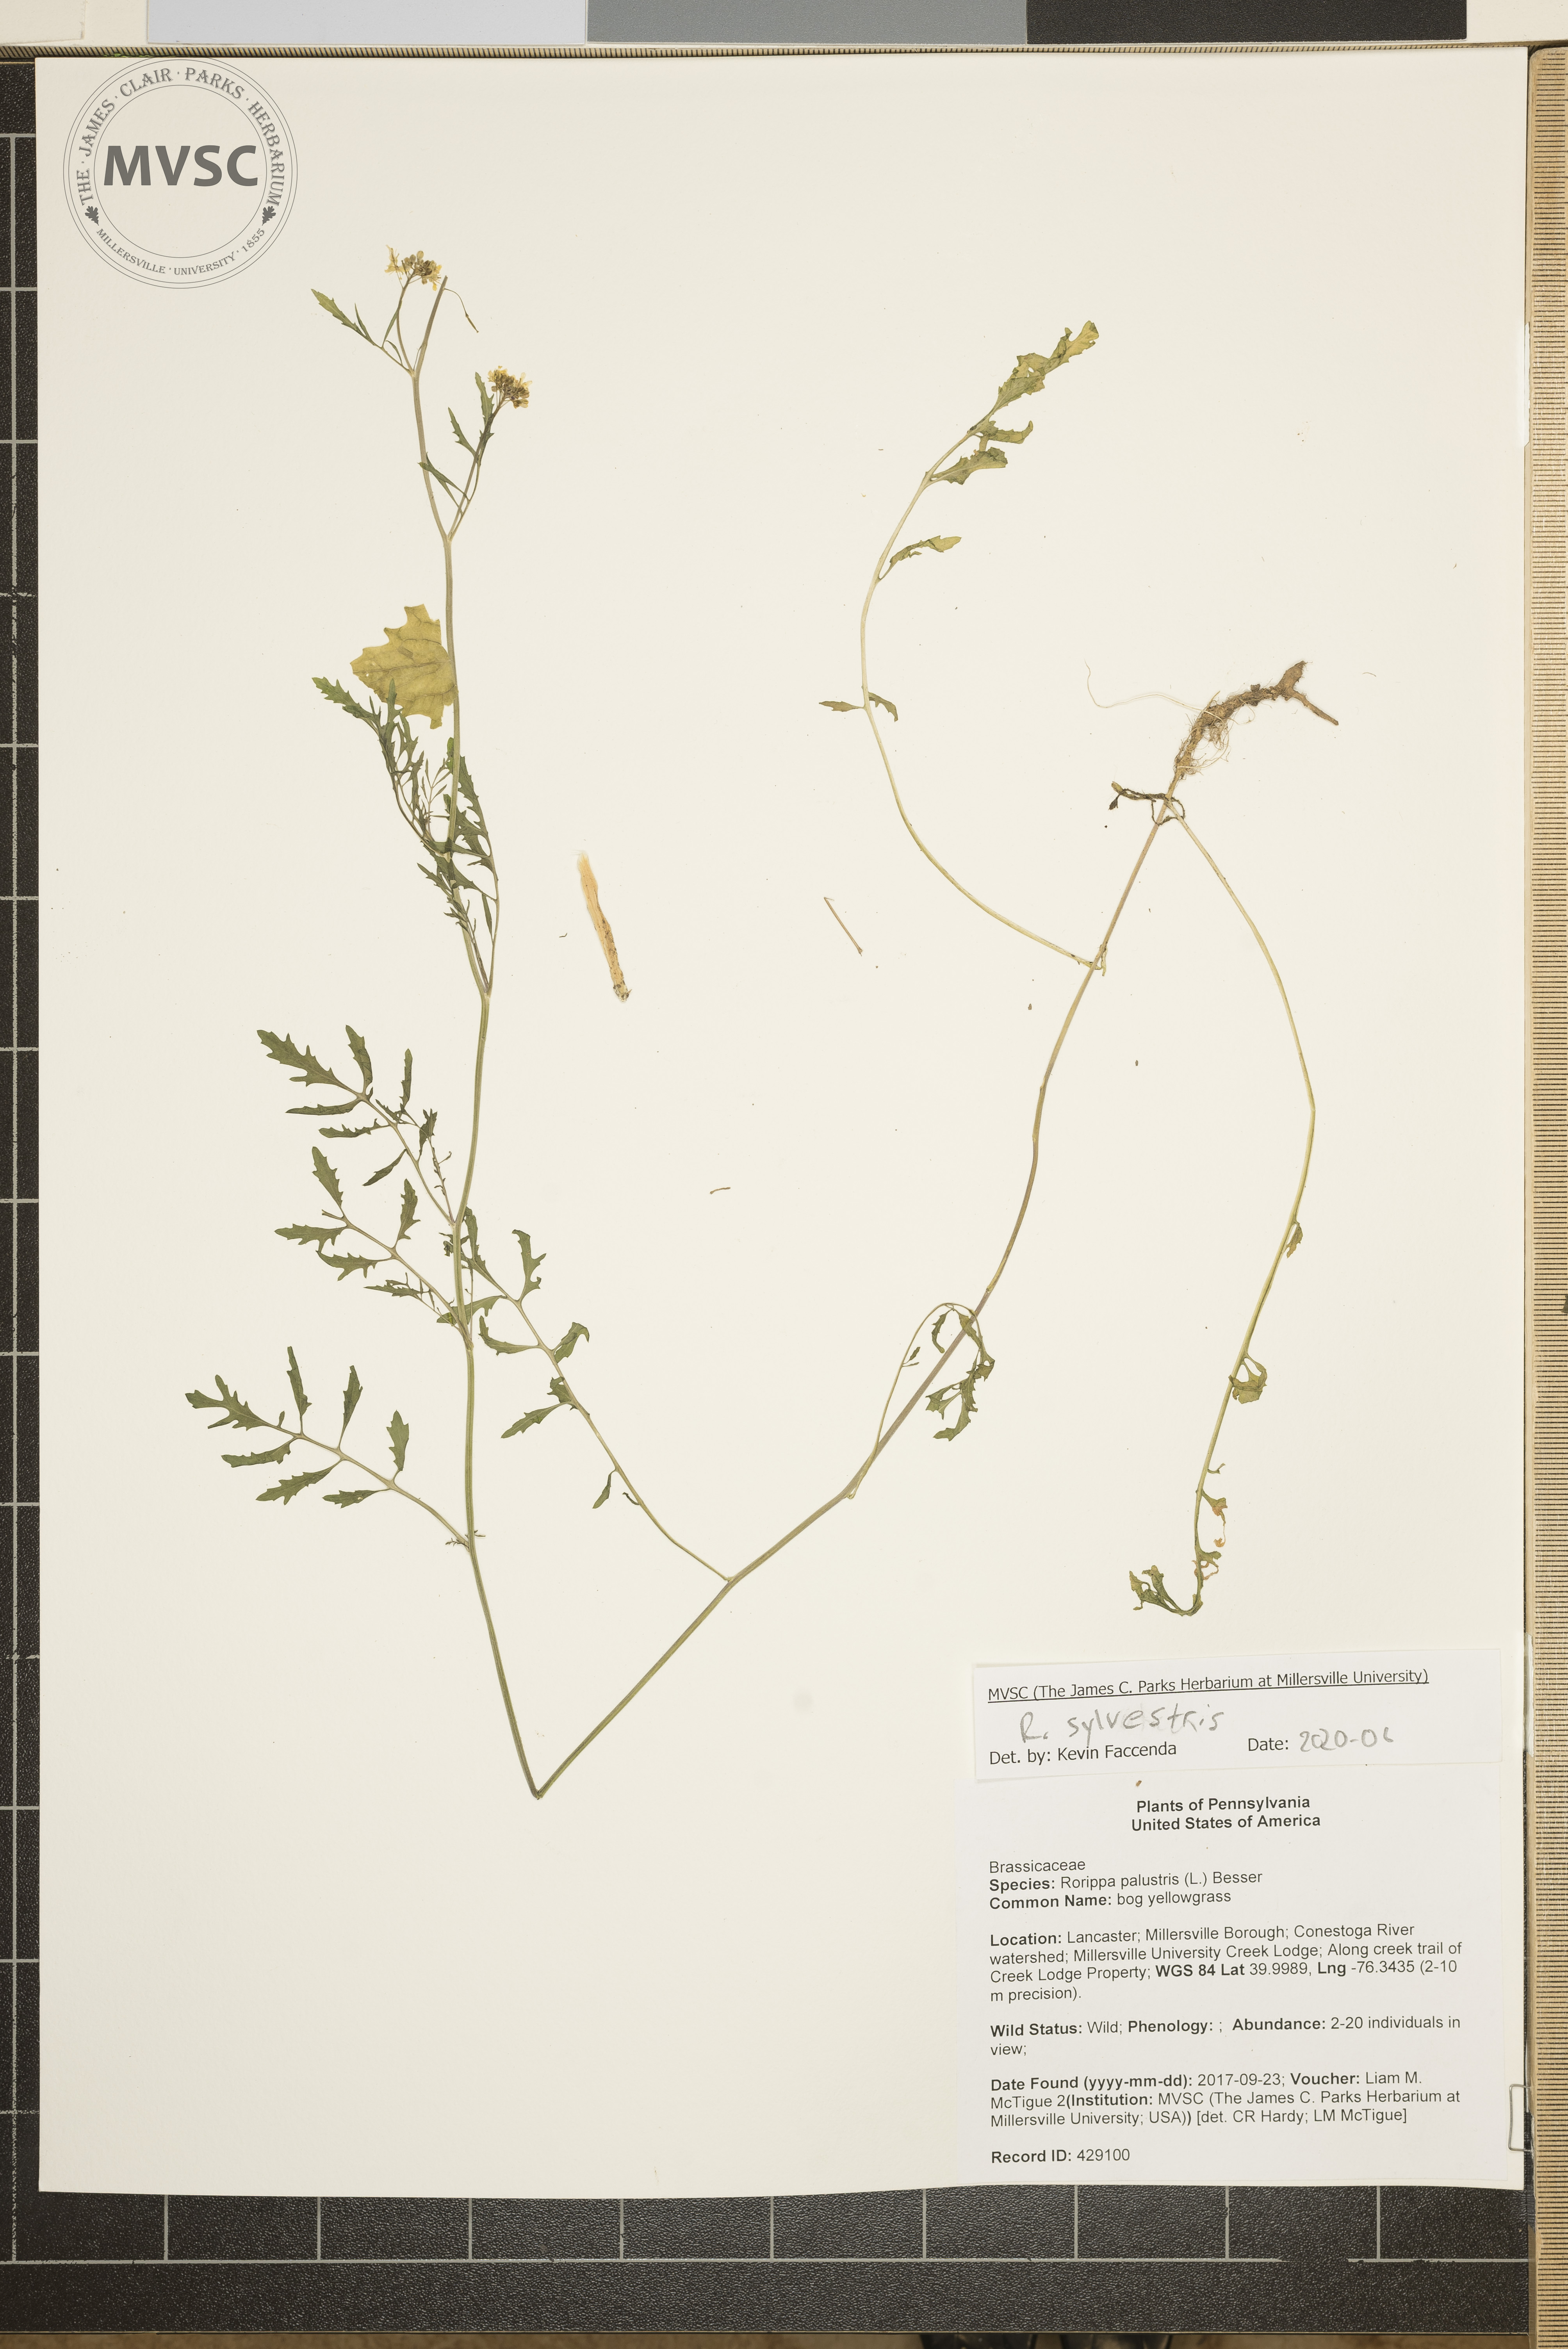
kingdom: Plantae
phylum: Tracheophyta
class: Magnoliopsida
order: Brassicales
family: Brassicaceae
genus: Rorippa
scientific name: Rorippa sylvestris
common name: creeping yellowcress
